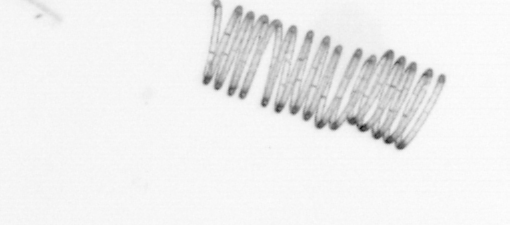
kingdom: Chromista
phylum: Ochrophyta
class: Bacillariophyceae
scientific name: Bacillariophyceae
